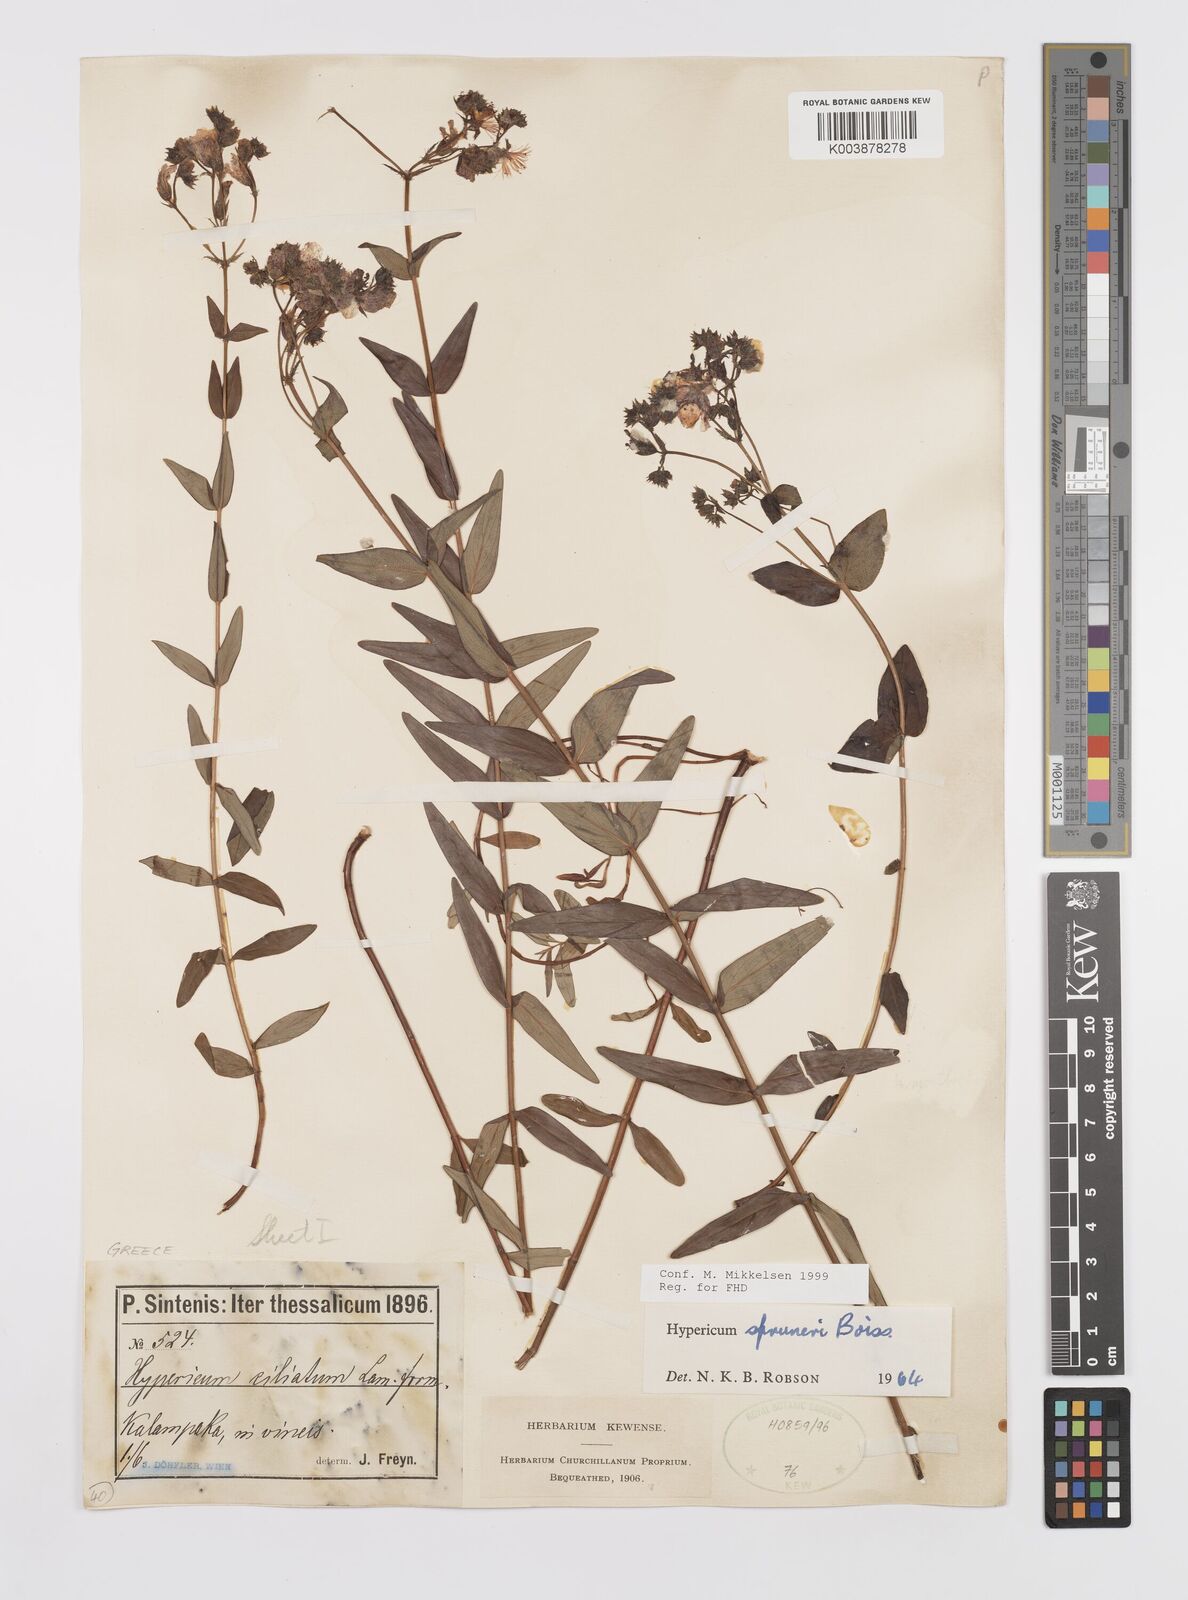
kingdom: Plantae
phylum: Tracheophyta
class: Magnoliopsida
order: Malpighiales
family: Hypericaceae
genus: Hypericum
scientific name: Hypericum spruneri
